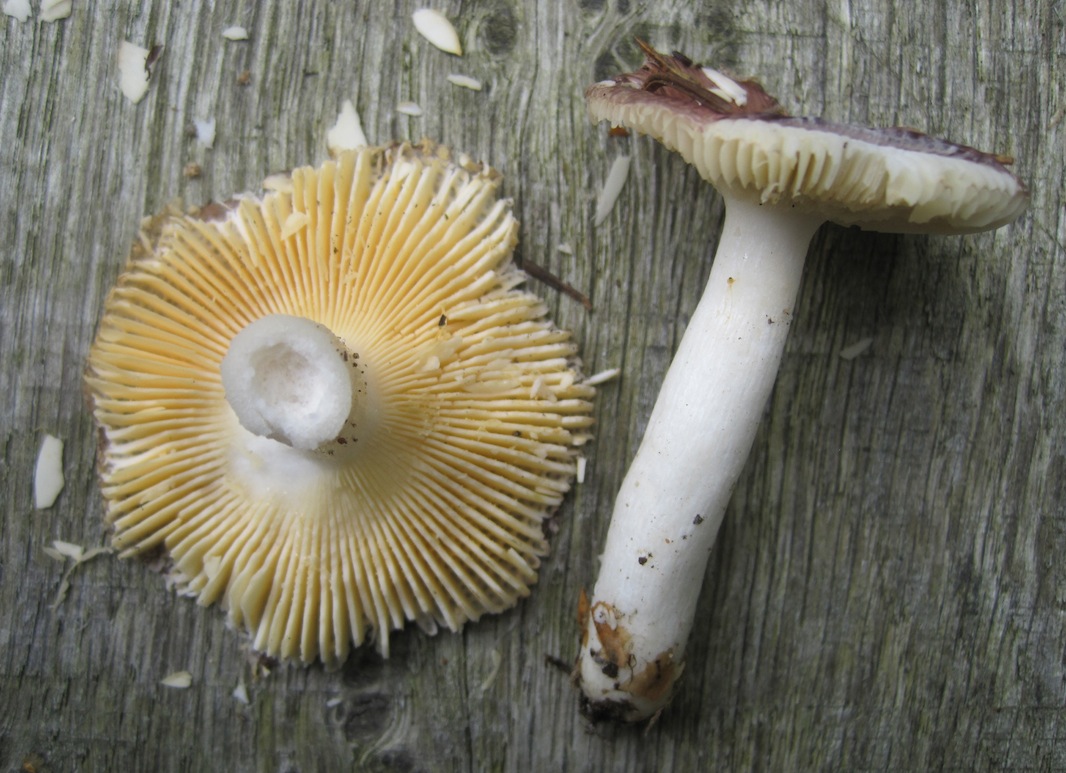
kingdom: Fungi
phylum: Basidiomycota
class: Agaricomycetes
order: Russulales
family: Russulaceae
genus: Russula
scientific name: Russula nauseosa
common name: spinkel skørhat
